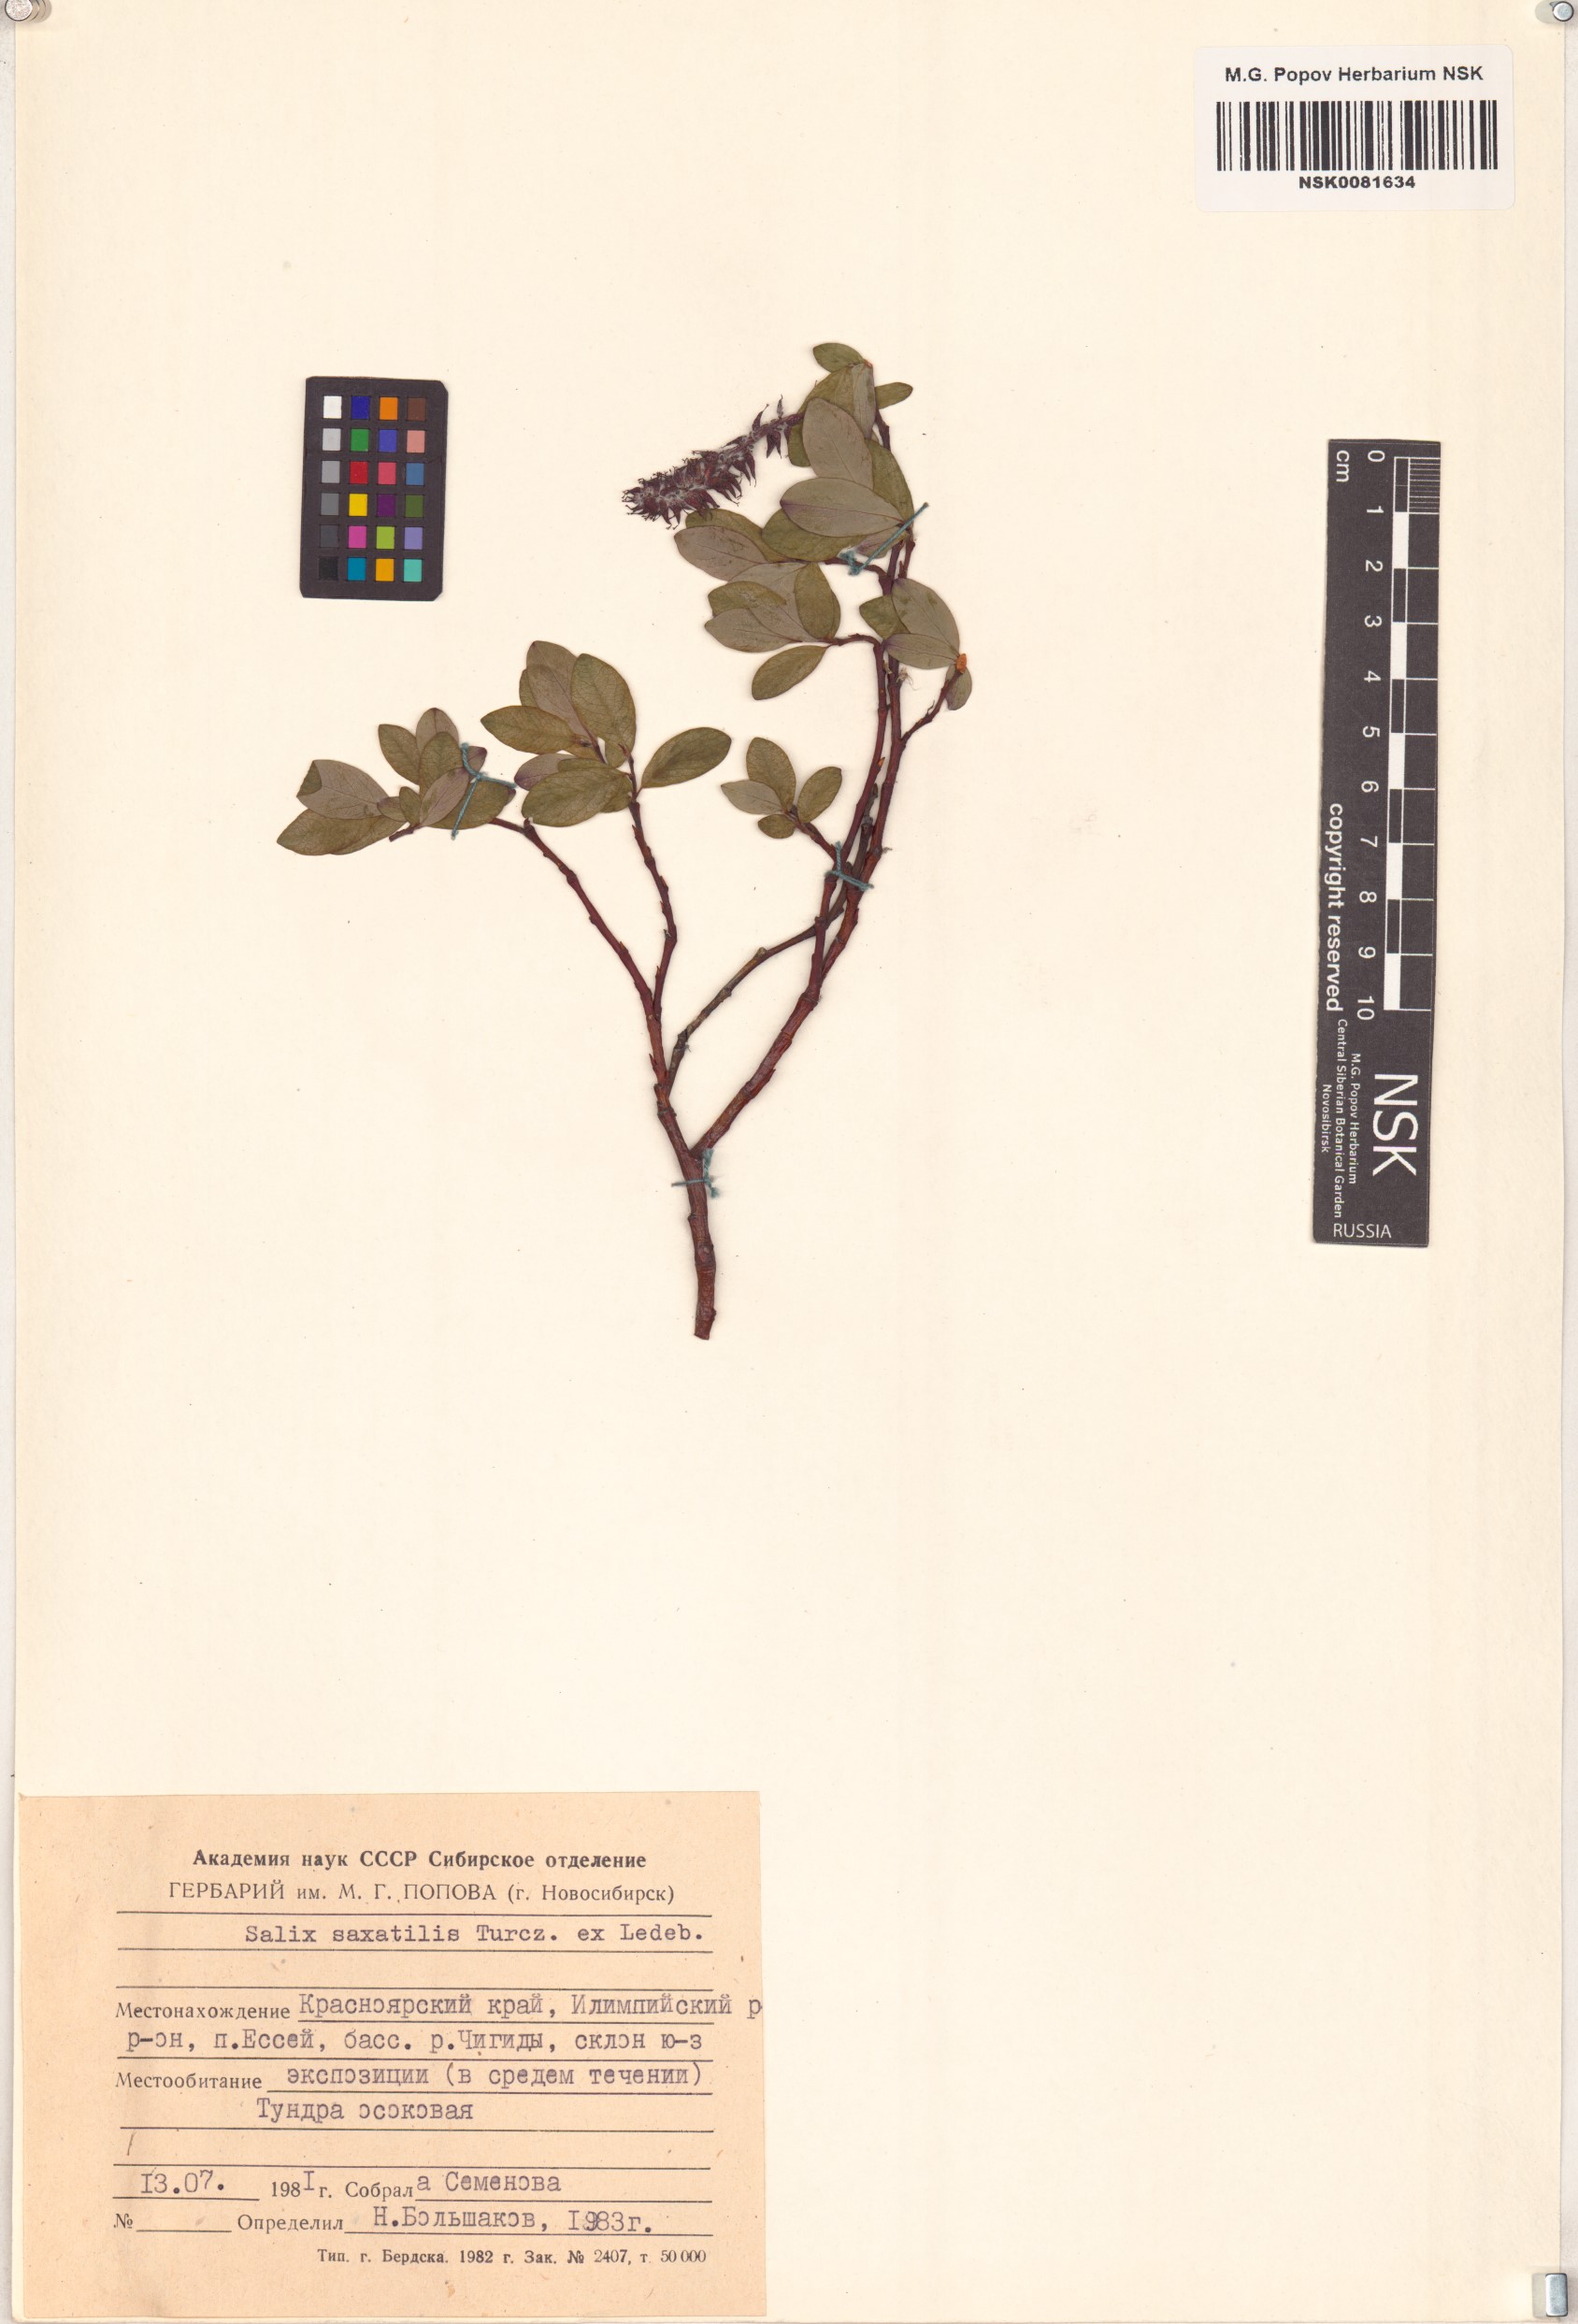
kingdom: Plantae
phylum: Tracheophyta
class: Magnoliopsida
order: Malpighiales
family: Salicaceae
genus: Salix
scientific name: Salix saxatilis
